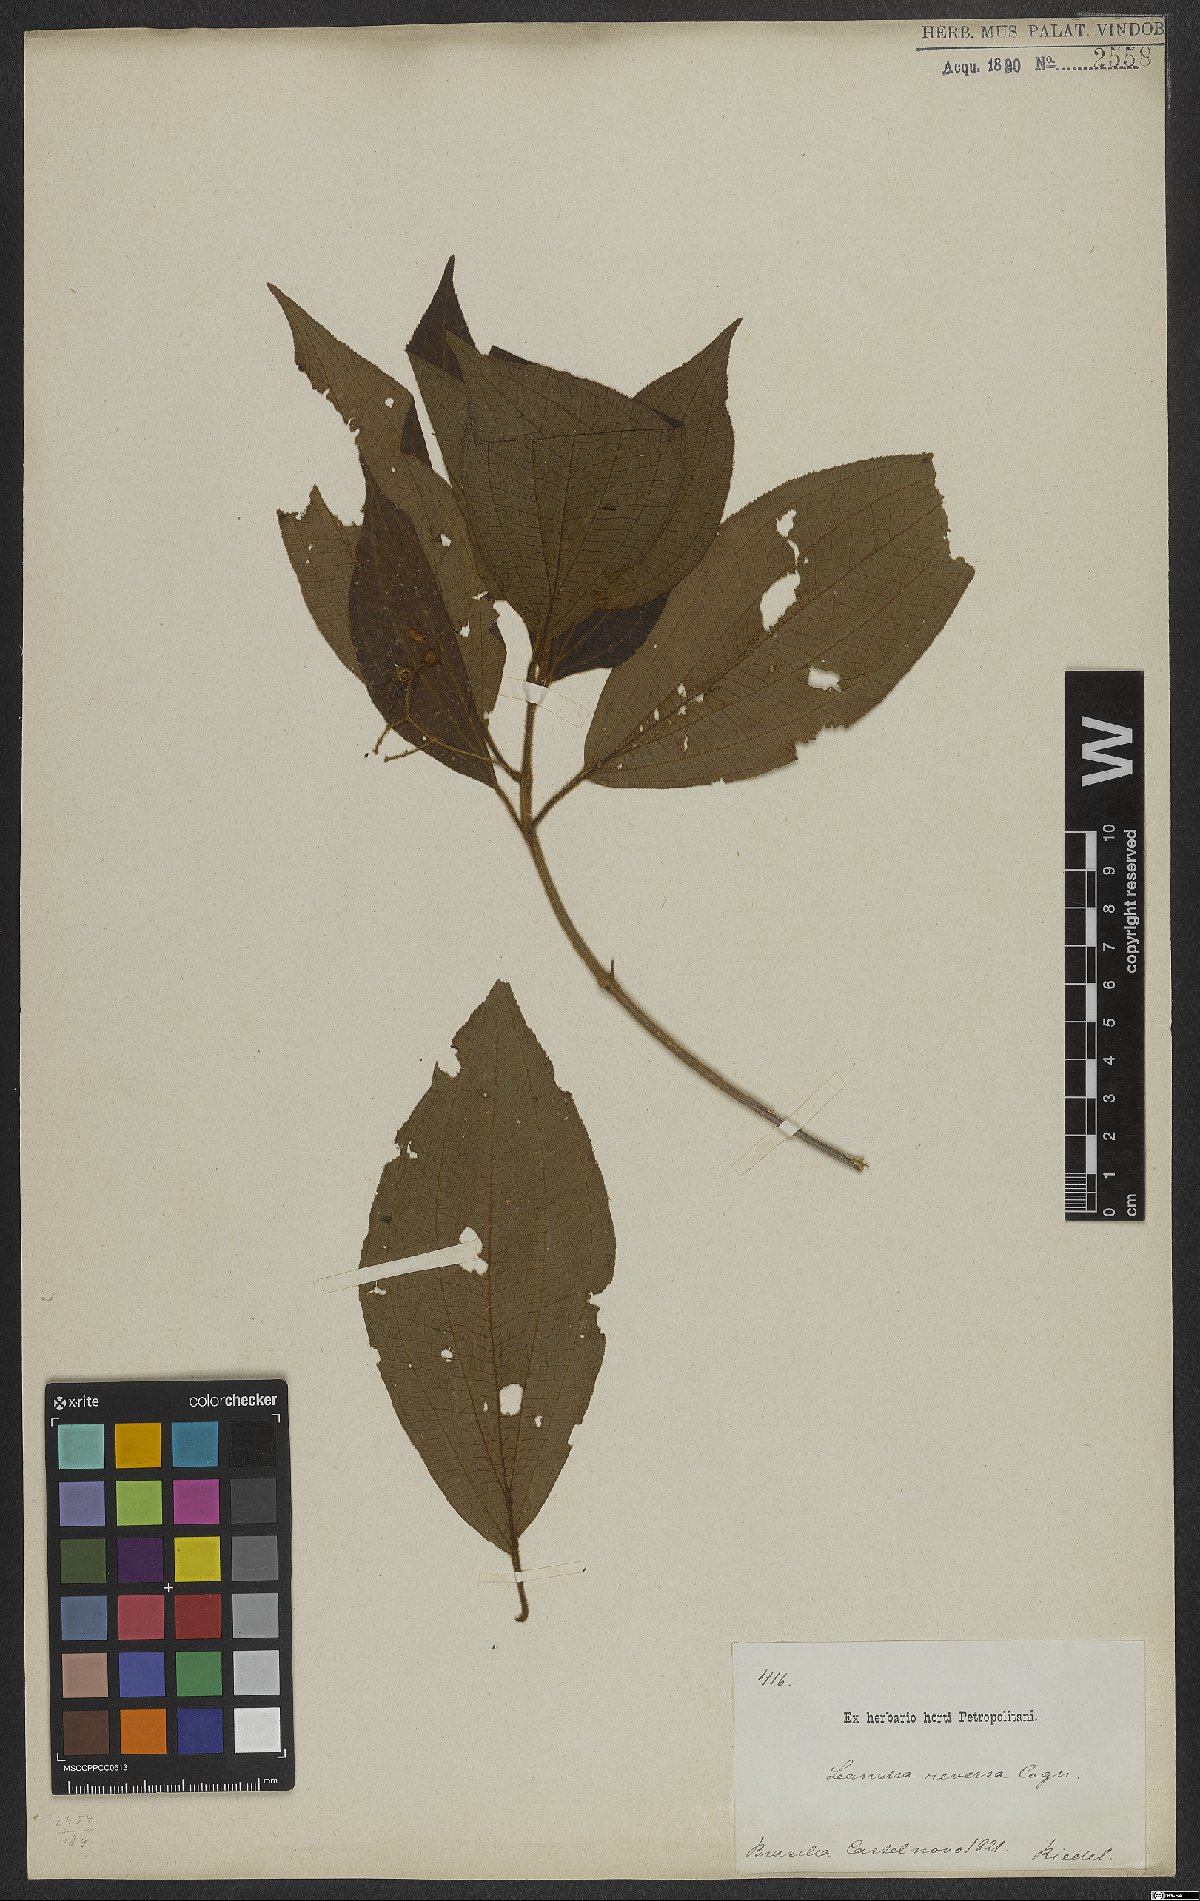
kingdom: Plantae
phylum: Tracheophyta
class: Magnoliopsida
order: Myrtales
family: Melastomataceae
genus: Miconia
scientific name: Miconia reversa
